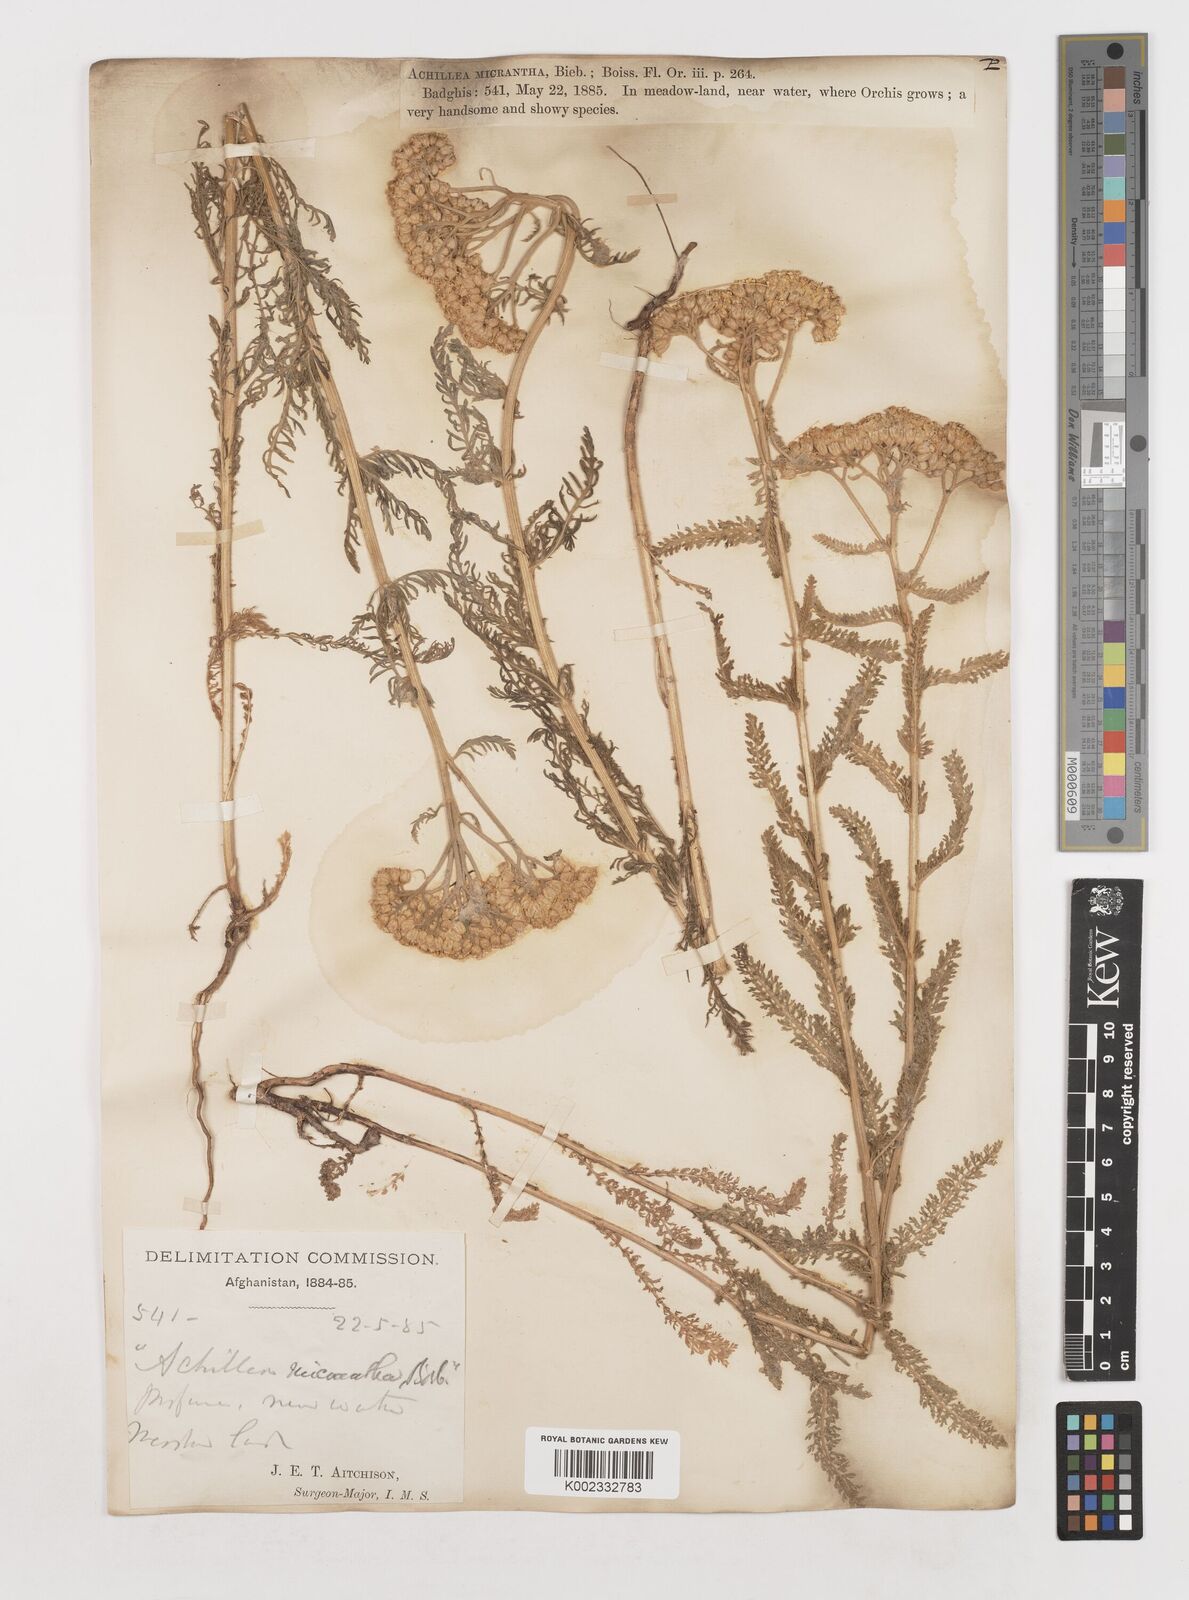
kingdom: Plantae
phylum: Tracheophyta
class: Magnoliopsida
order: Asterales
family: Asteraceae
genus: Achillea
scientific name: Achillea arabica
